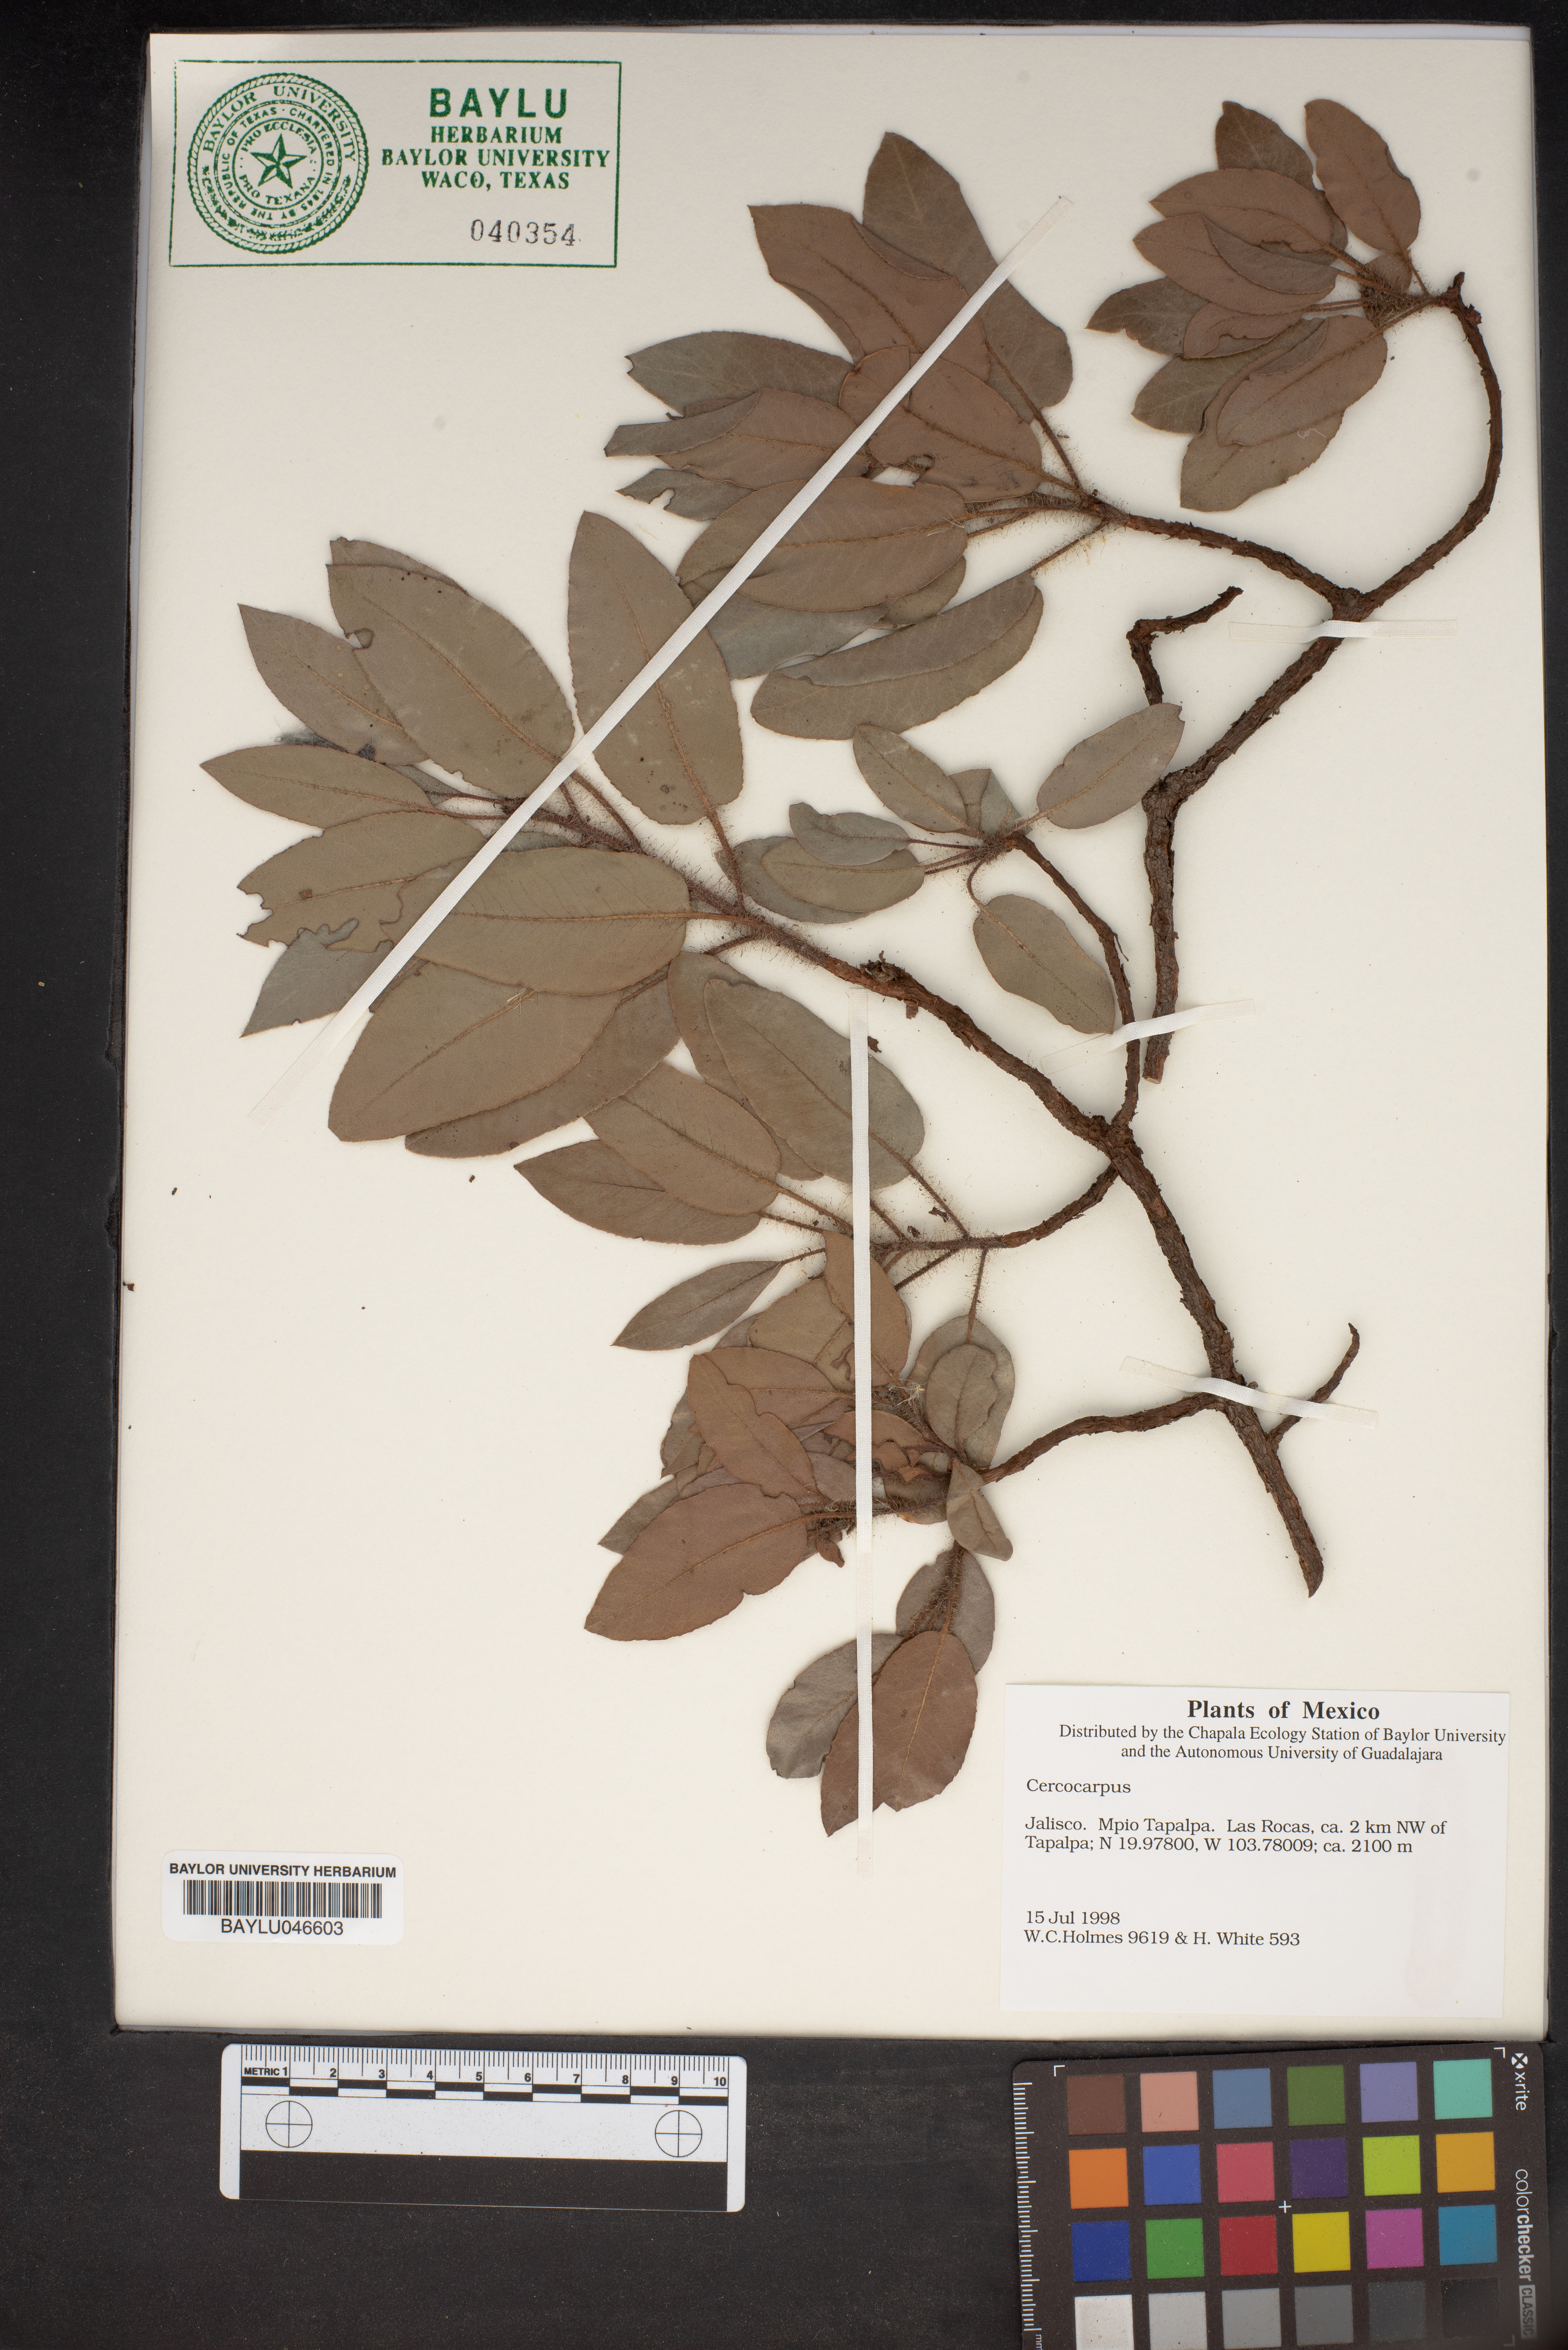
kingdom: Plantae
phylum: Tracheophyta
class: Magnoliopsida
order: Rosales
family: Rosaceae
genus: Cercocarpus
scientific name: Cercocarpus
